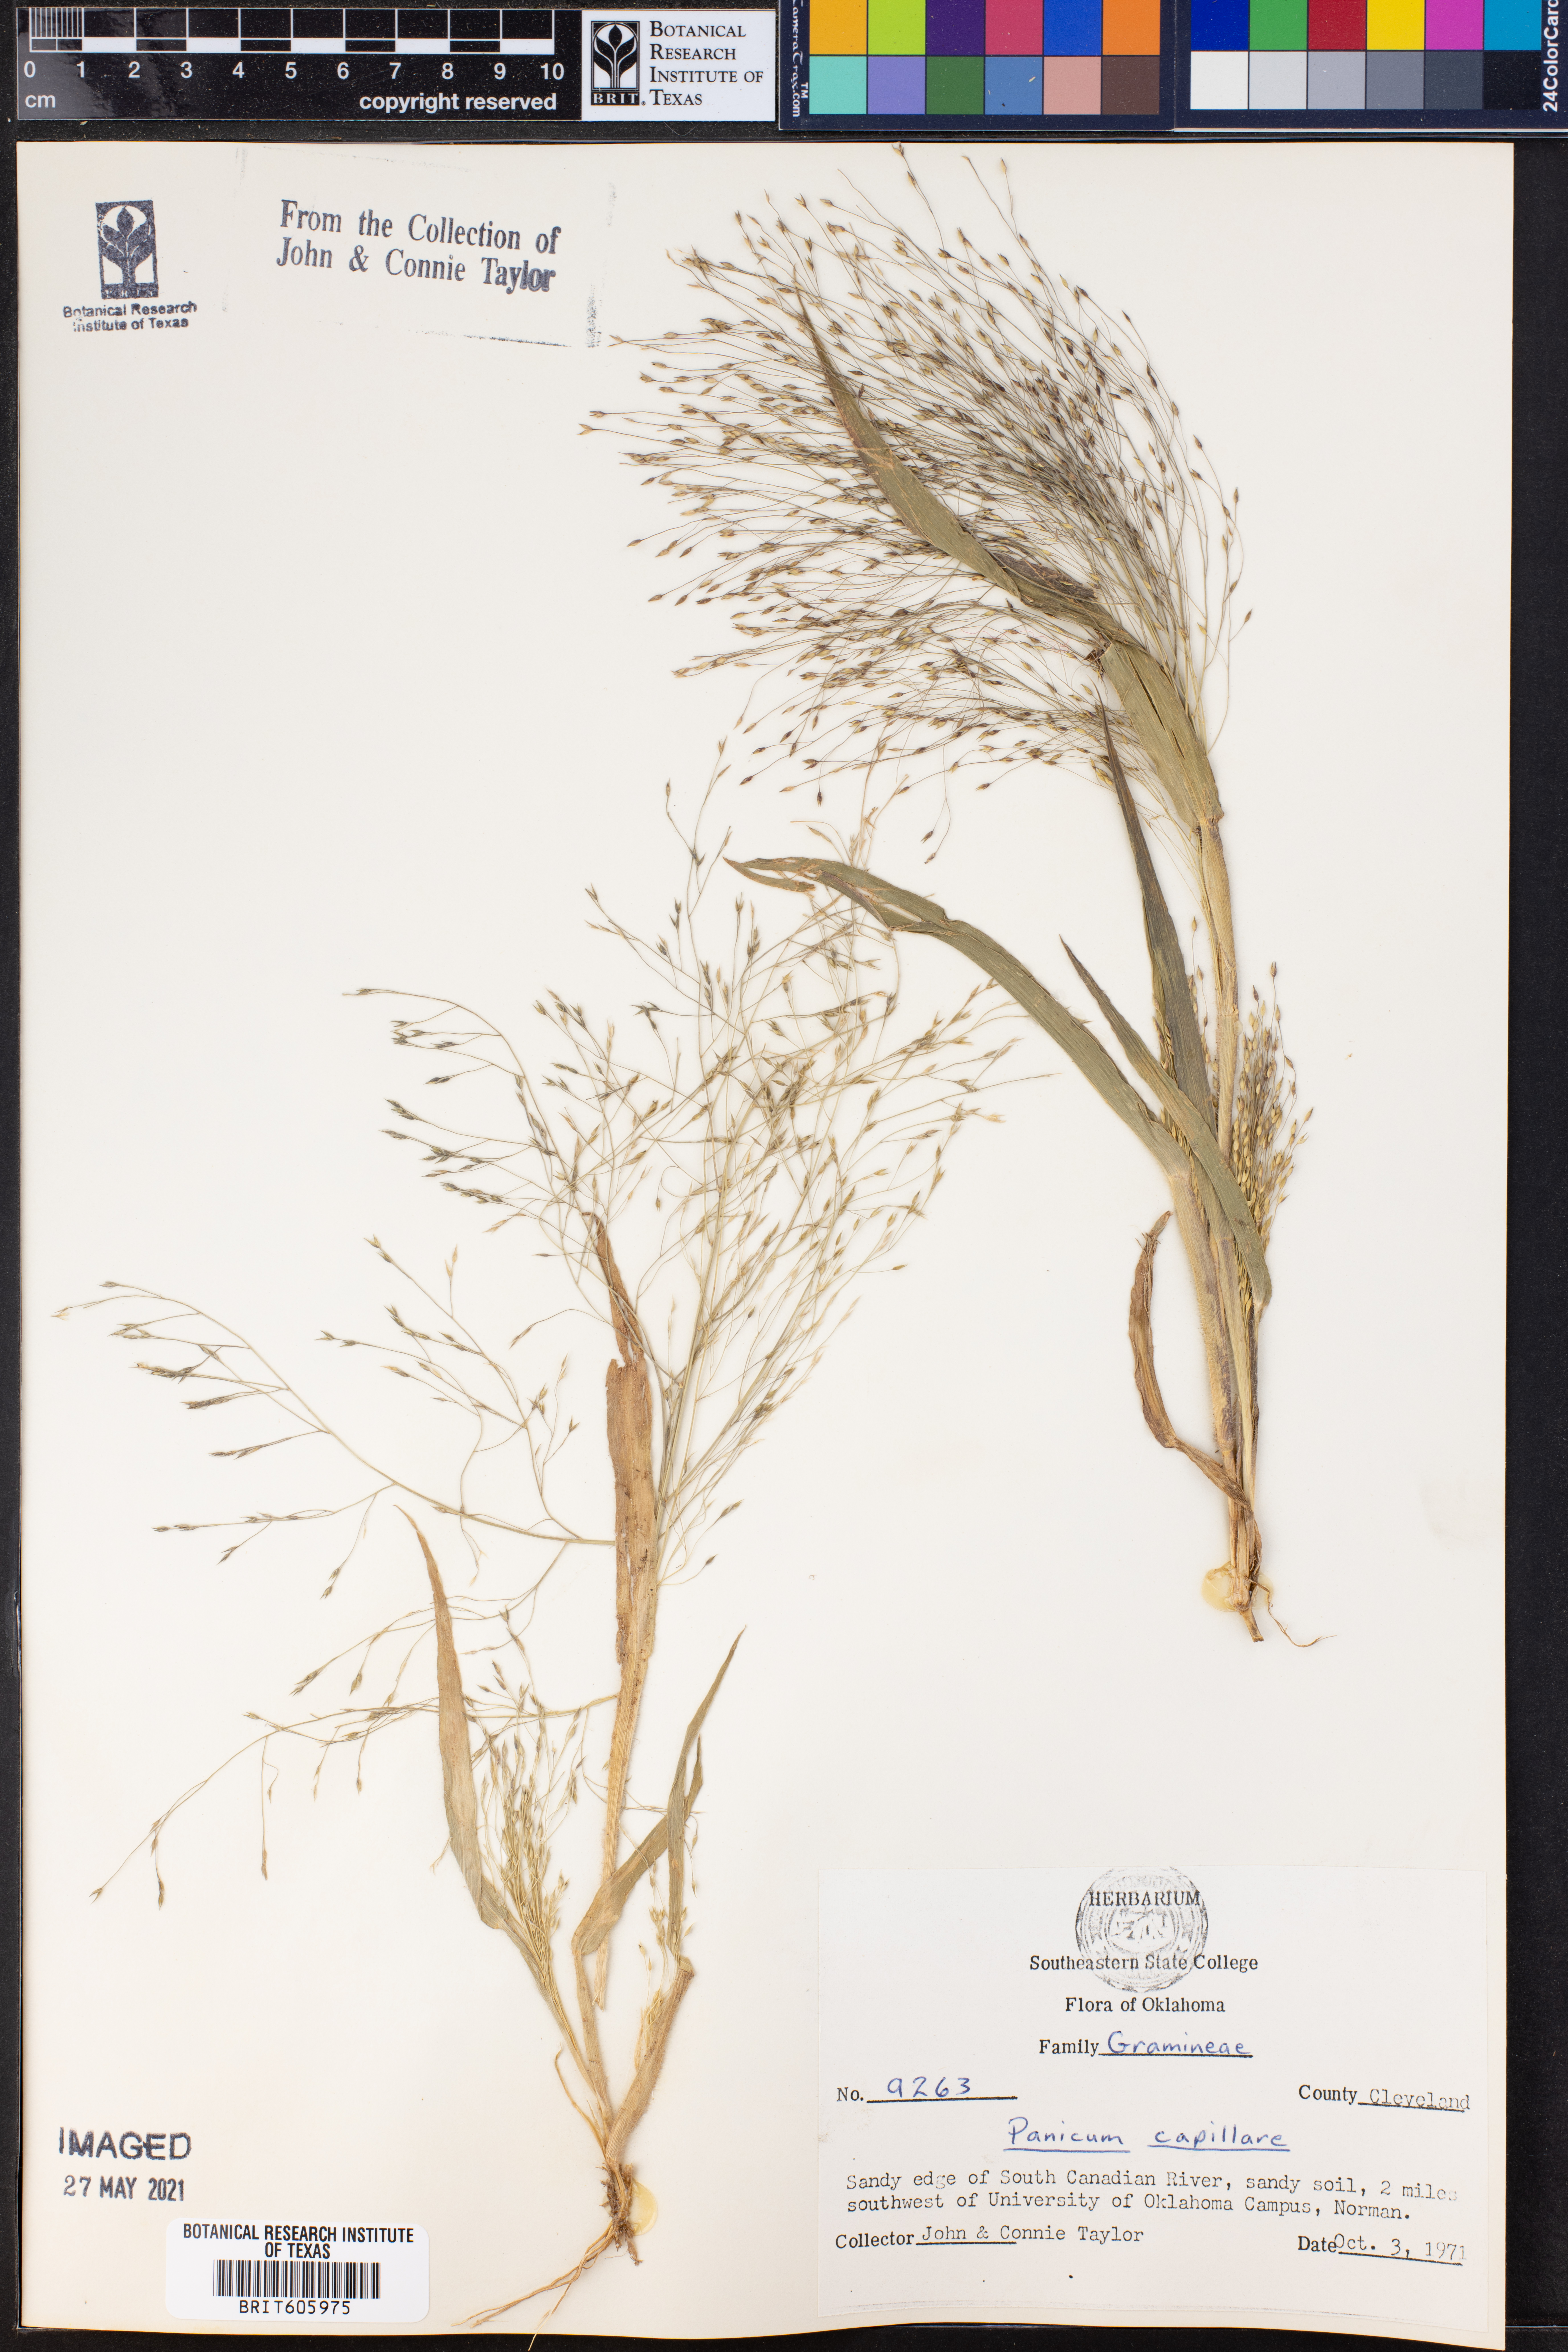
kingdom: Plantae
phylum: Tracheophyta
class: Liliopsida
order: Poales
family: Poaceae
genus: Panicum
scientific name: Panicum capillare
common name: Witch-grass
